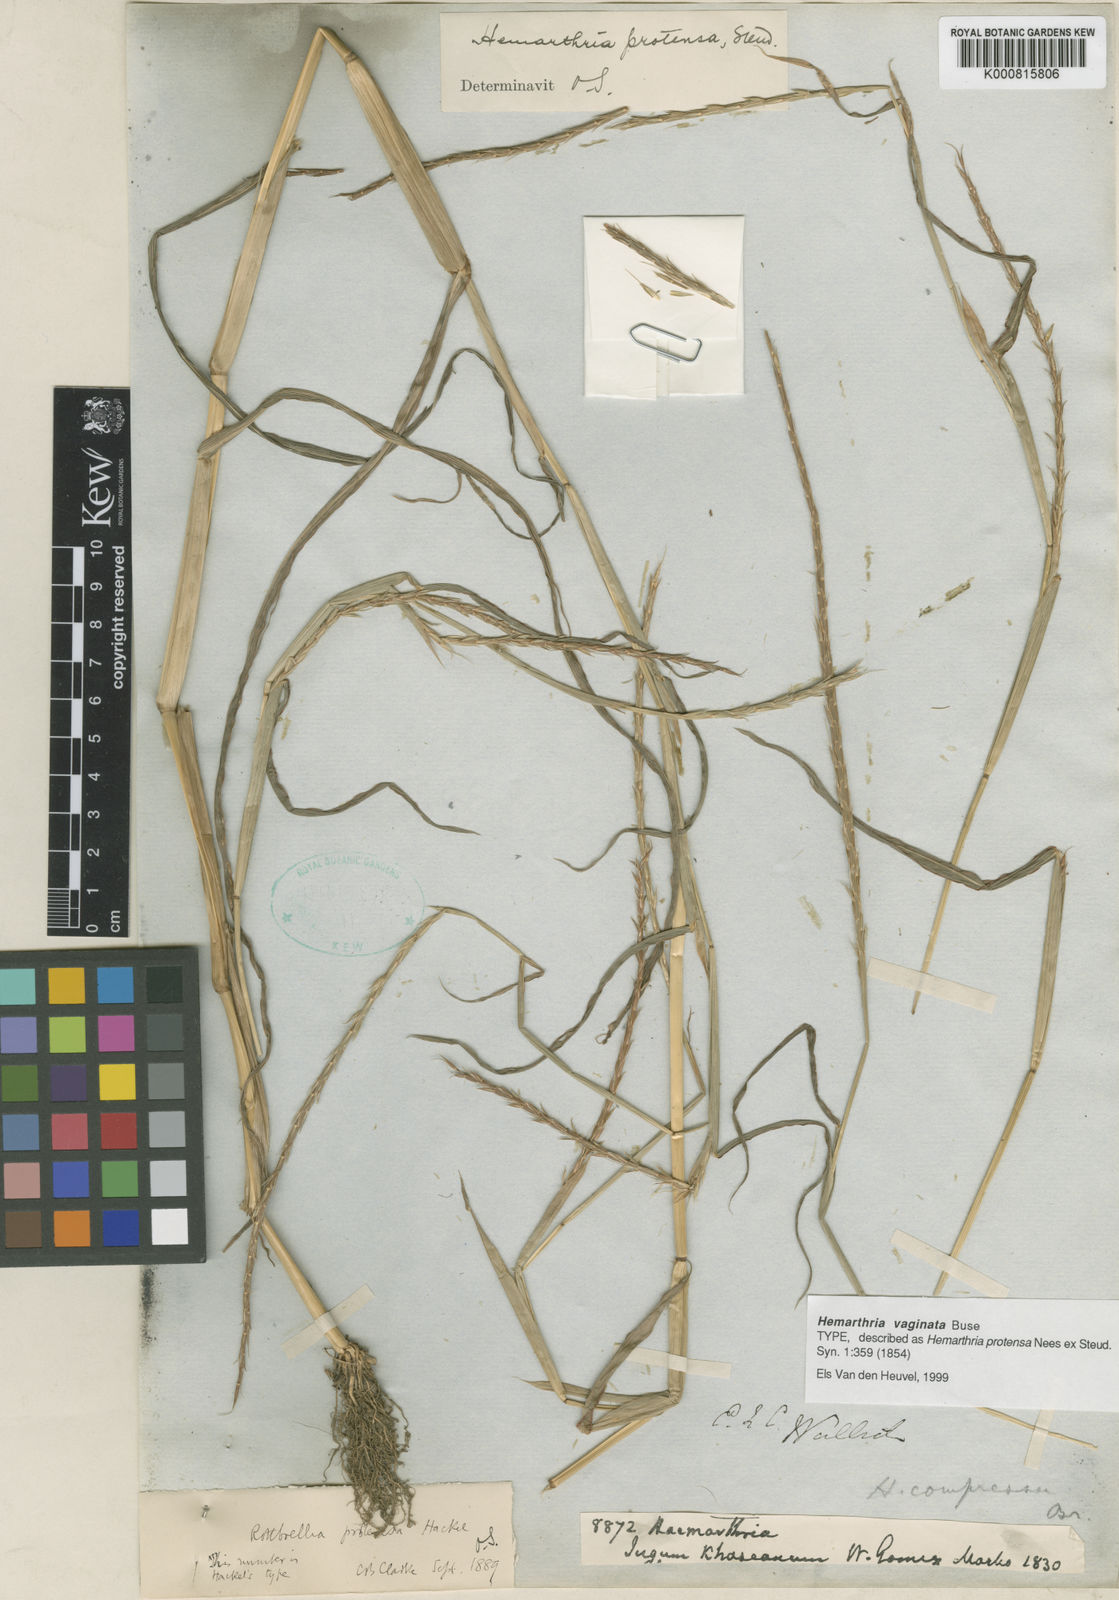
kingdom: Plantae
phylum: Tracheophyta
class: Liliopsida
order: Poales
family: Poaceae
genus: Hemarthria
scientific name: Hemarthria
